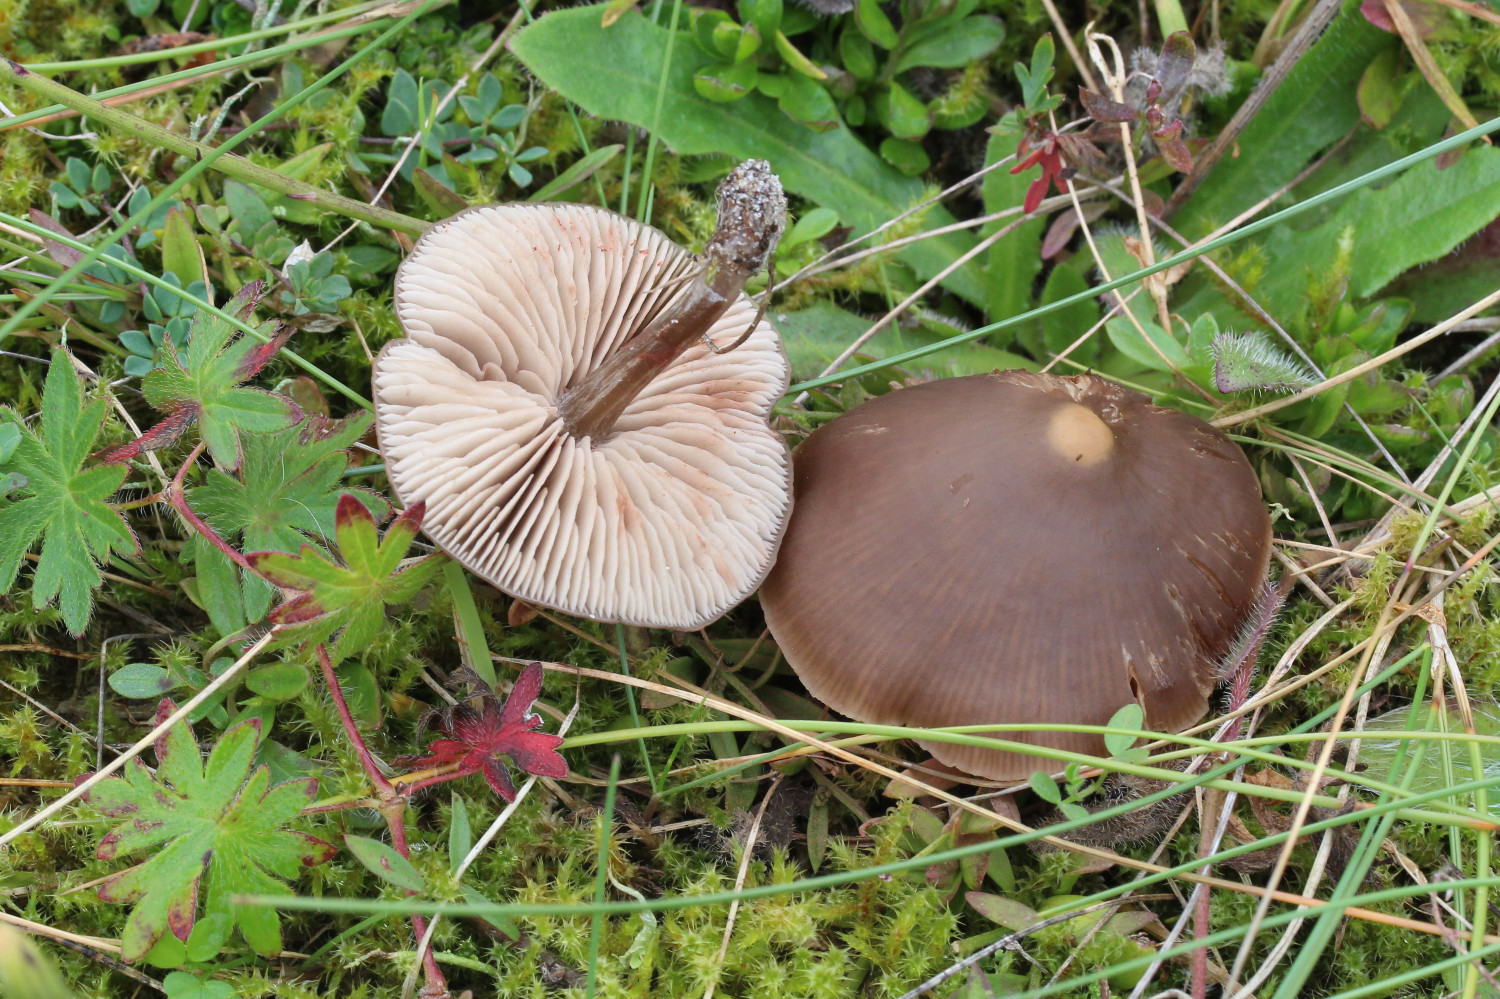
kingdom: Fungi
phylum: Basidiomycota
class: Agaricomycetes
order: Agaricales
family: Entolomataceae
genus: Entoloma
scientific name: Entoloma sericeum
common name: silkeglinsende rødblad
